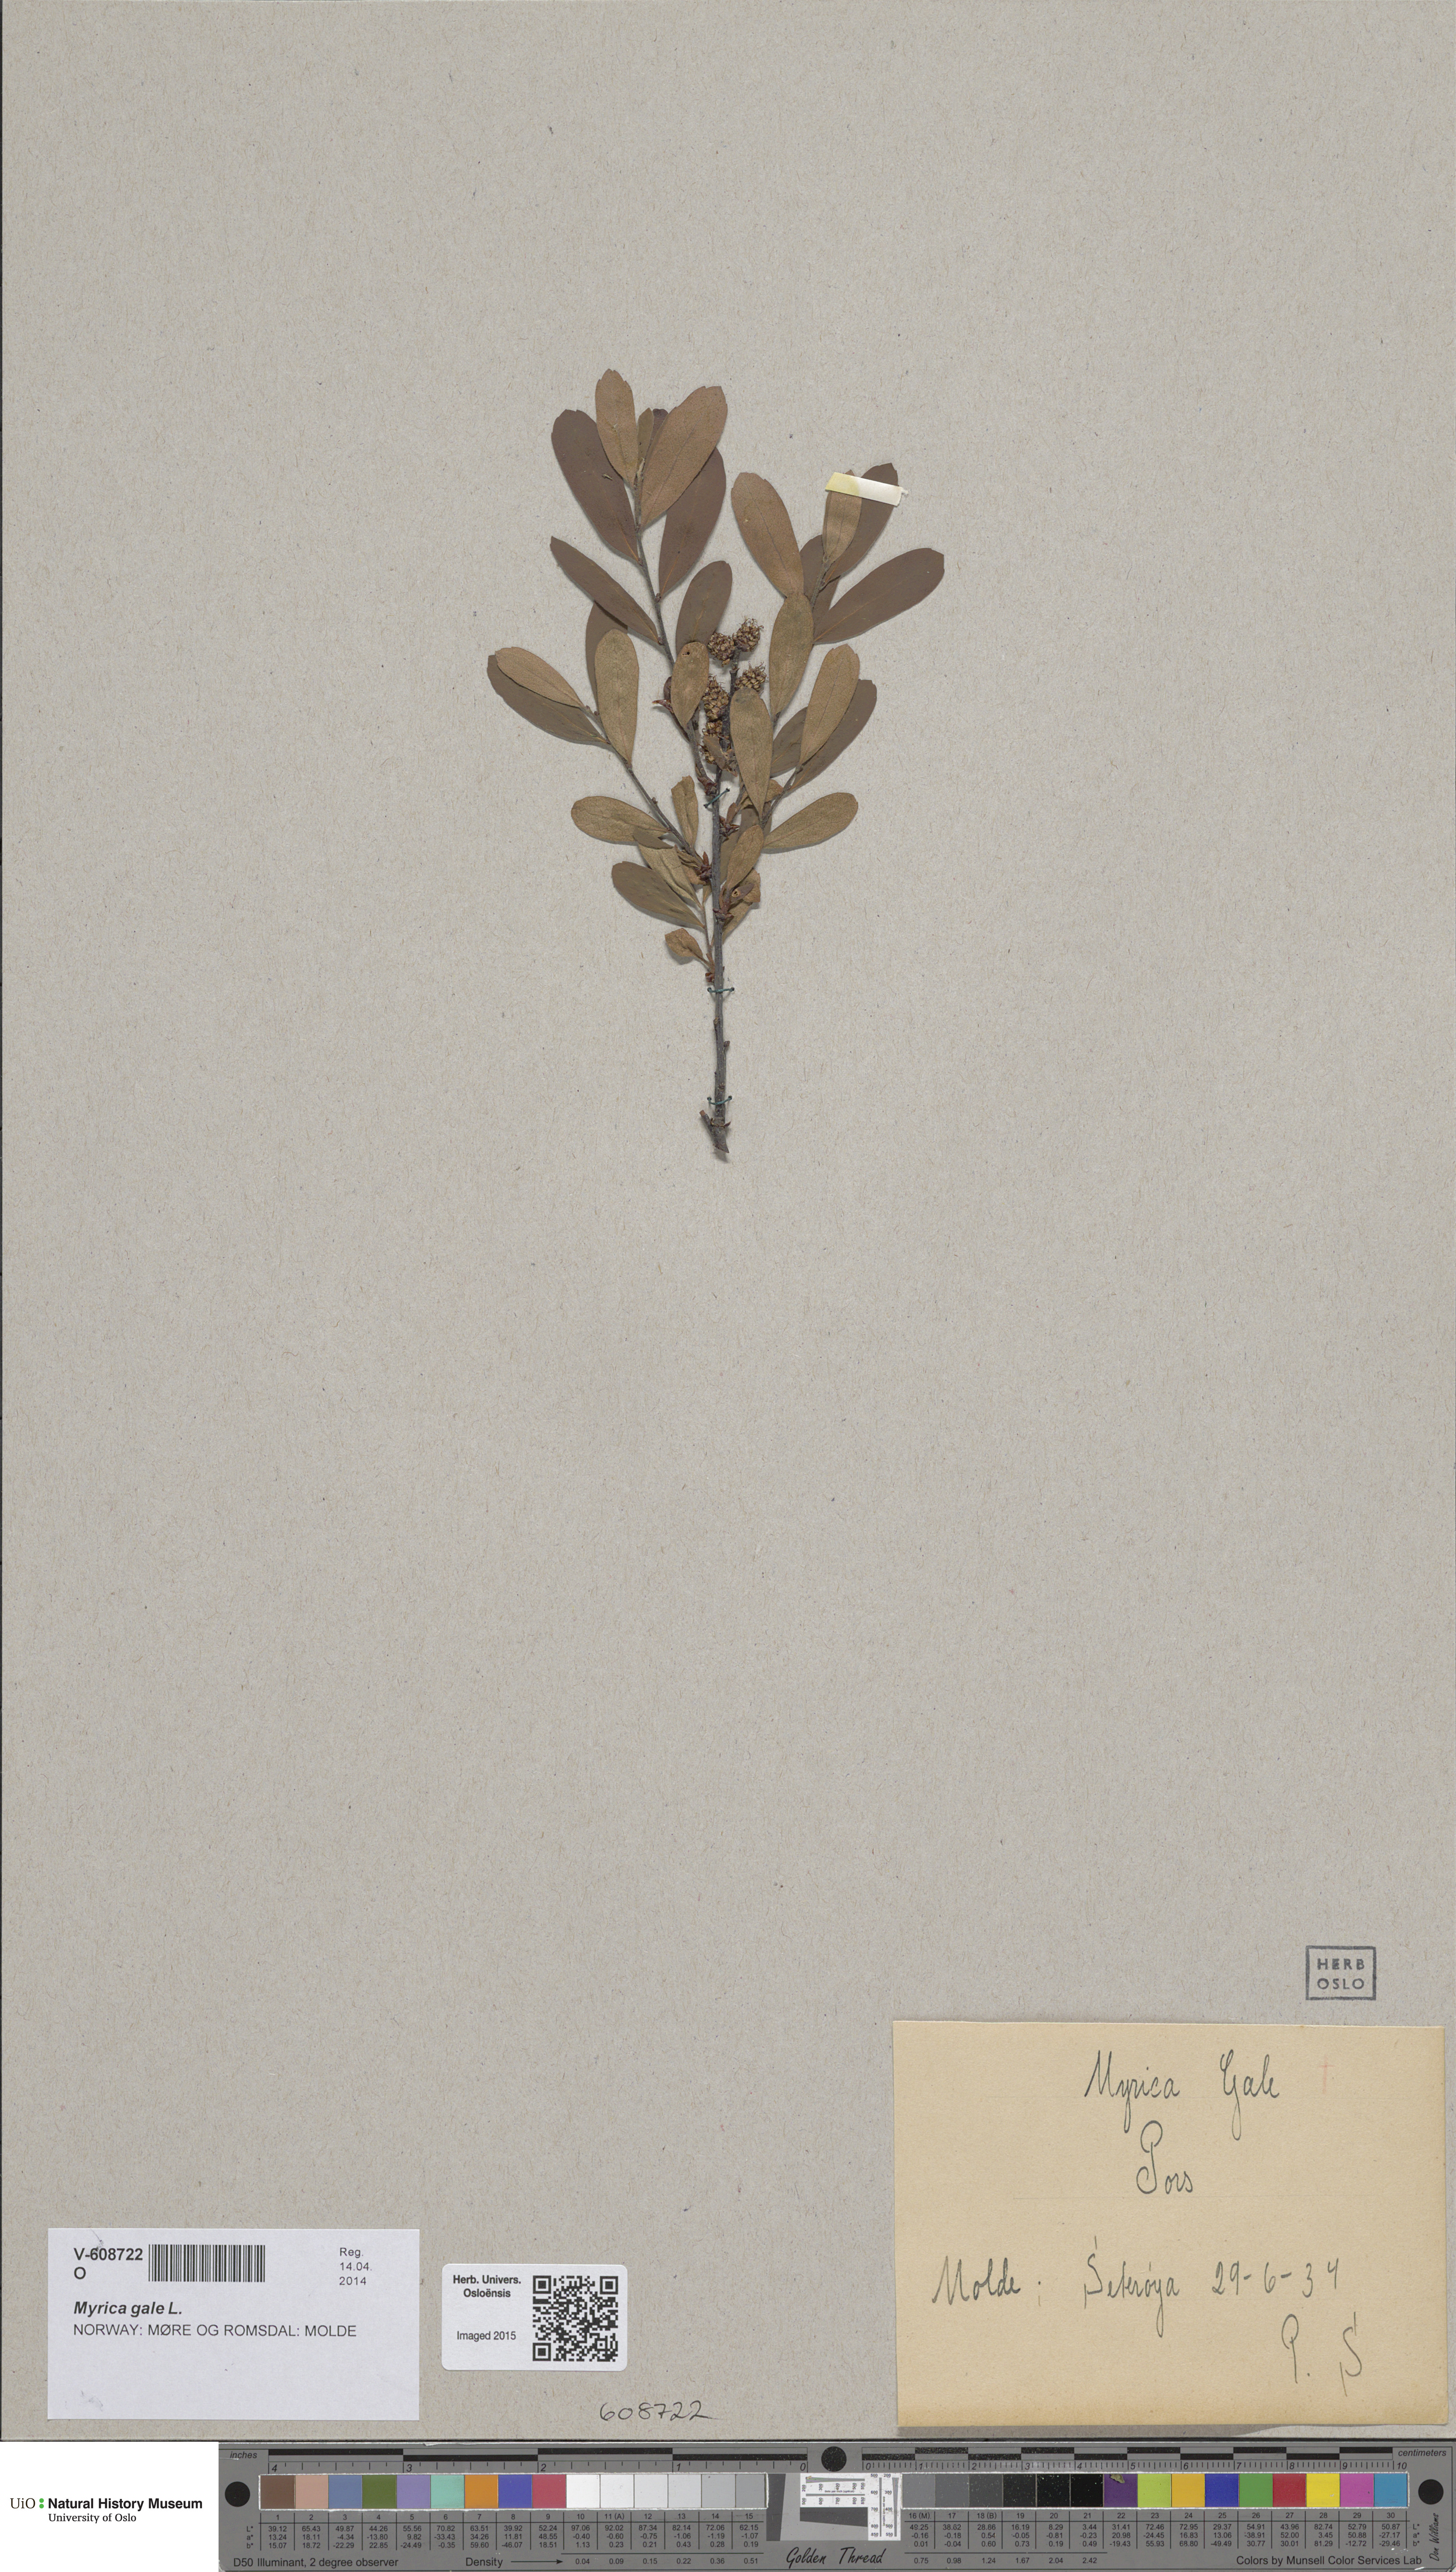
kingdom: Plantae
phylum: Tracheophyta
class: Magnoliopsida
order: Fagales
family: Myricaceae
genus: Myrica
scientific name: Myrica gale
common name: Sweet gale
